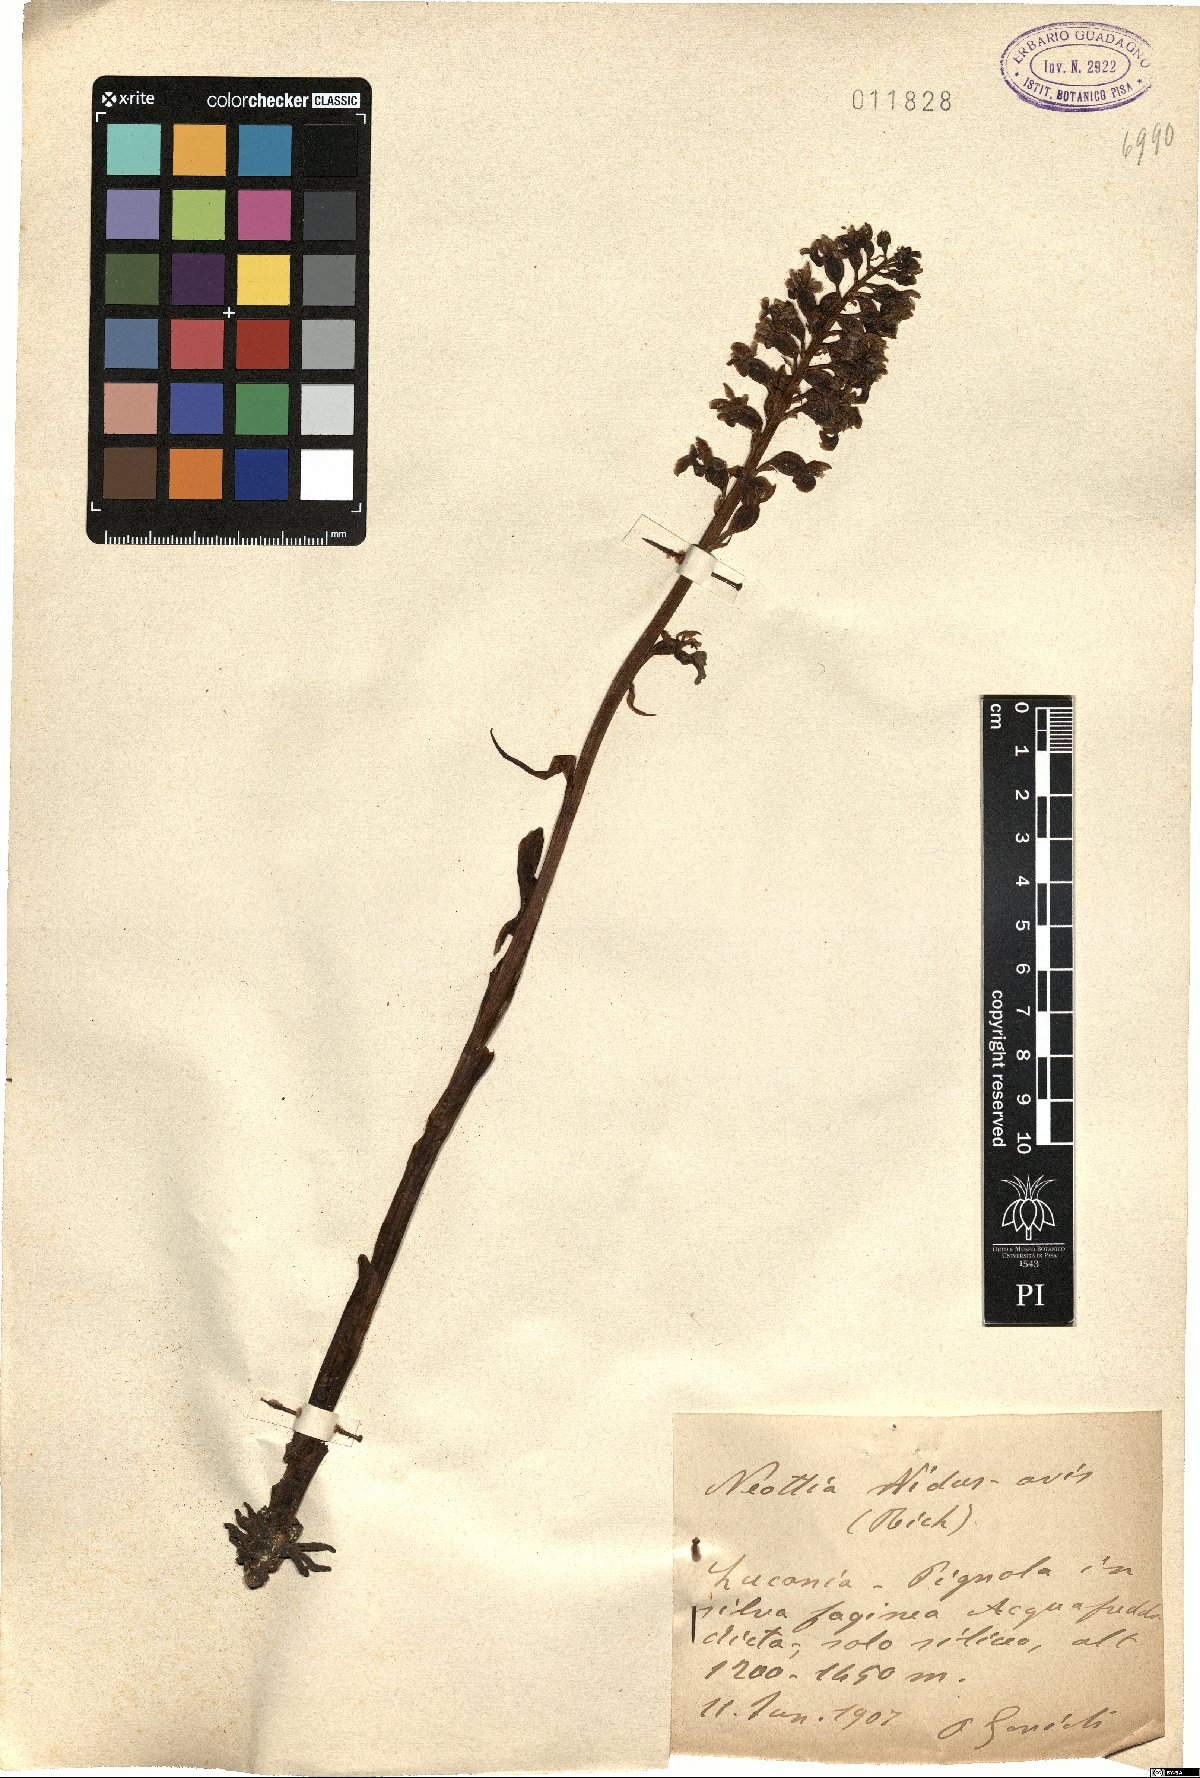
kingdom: Plantae
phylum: Tracheophyta
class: Liliopsida
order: Asparagales
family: Orchidaceae
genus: Neottia
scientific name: Neottia nidus-avis
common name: Bird's-nest orchid
